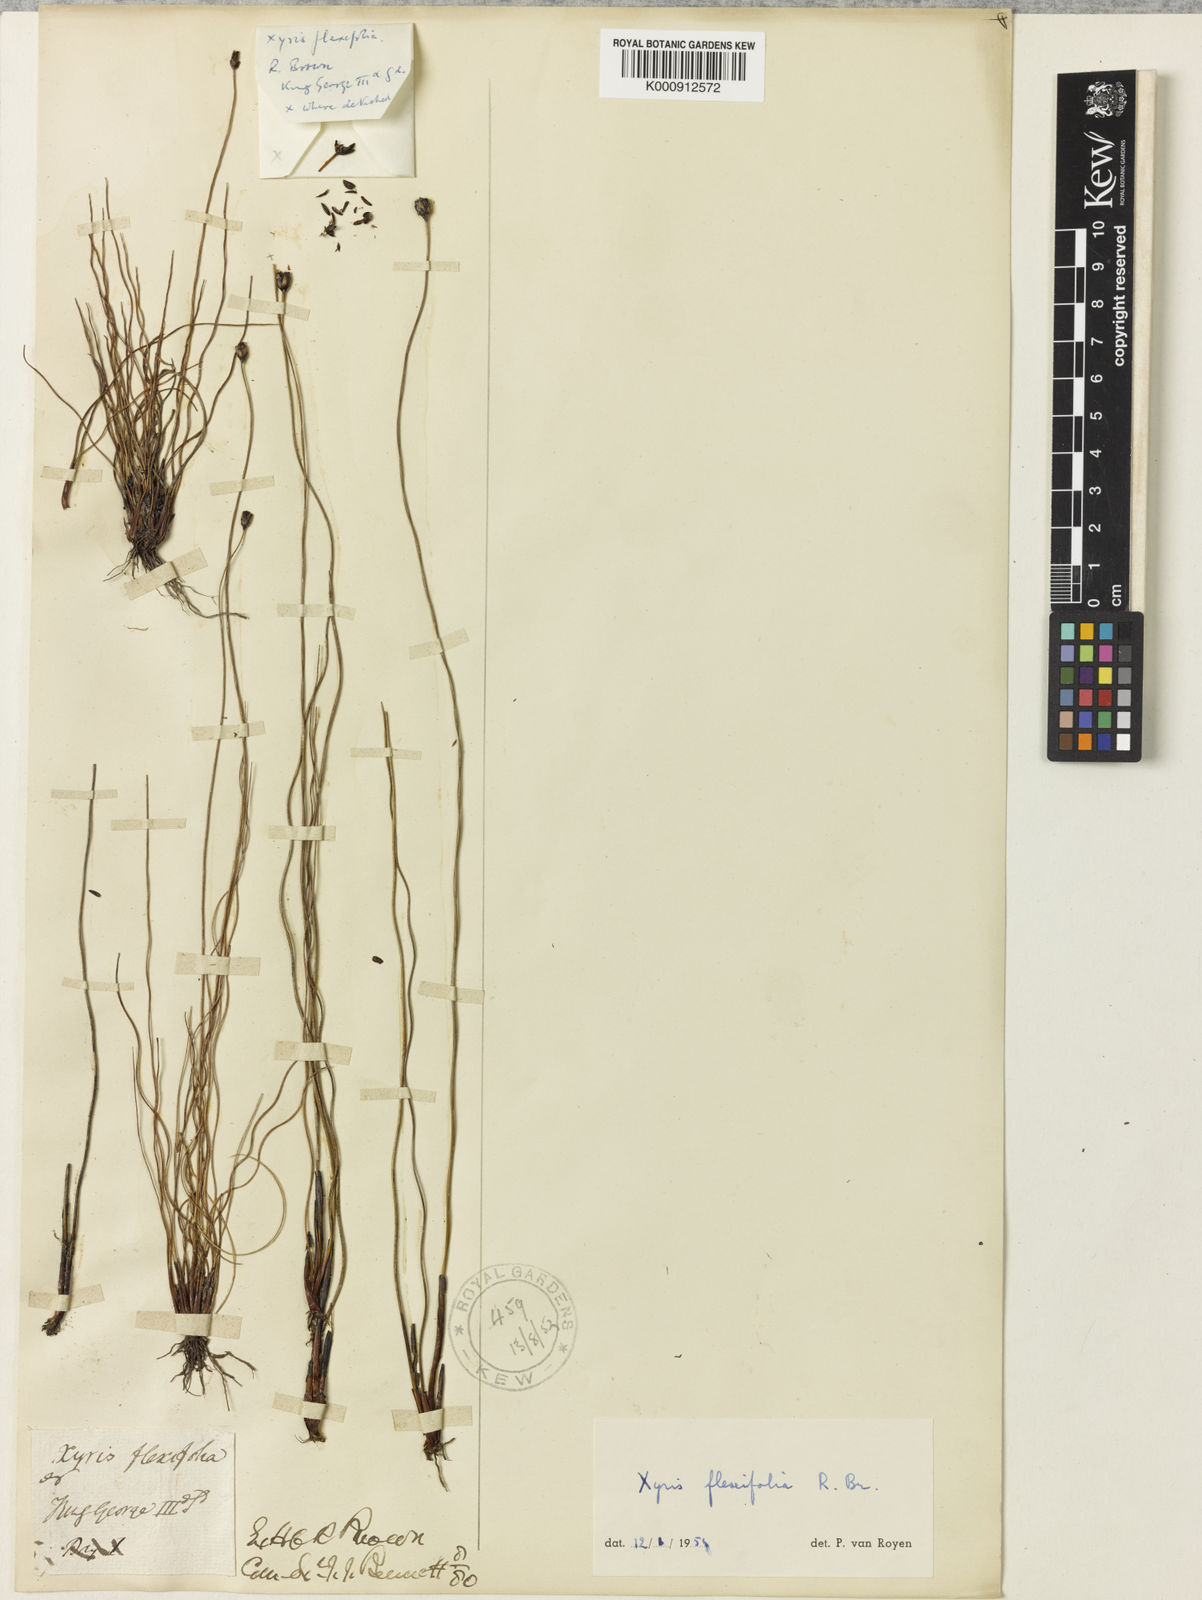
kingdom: Plantae
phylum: Tracheophyta
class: Liliopsida
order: Poales
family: Xyridaceae
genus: Xyris
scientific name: Xyris flexifolia
